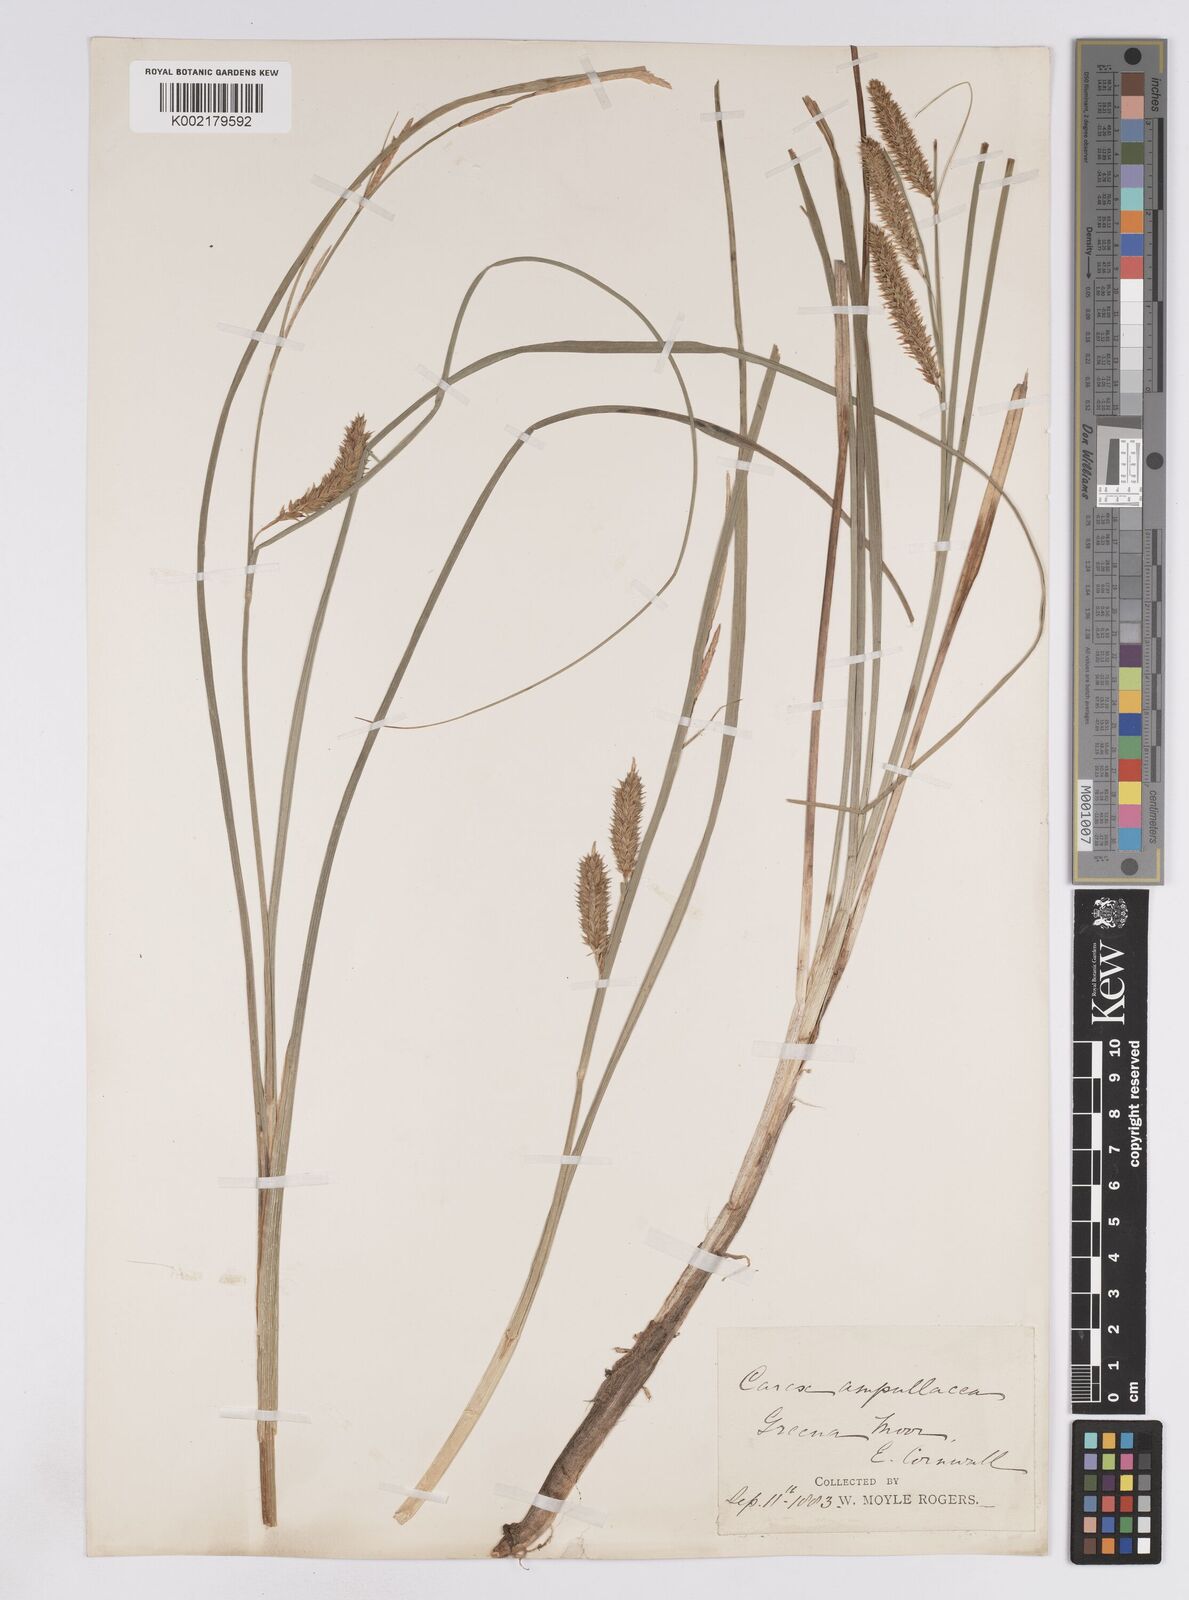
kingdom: Plantae
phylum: Tracheophyta
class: Liliopsida
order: Poales
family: Cyperaceae
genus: Carex
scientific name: Carex rostrata
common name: Bottle sedge
